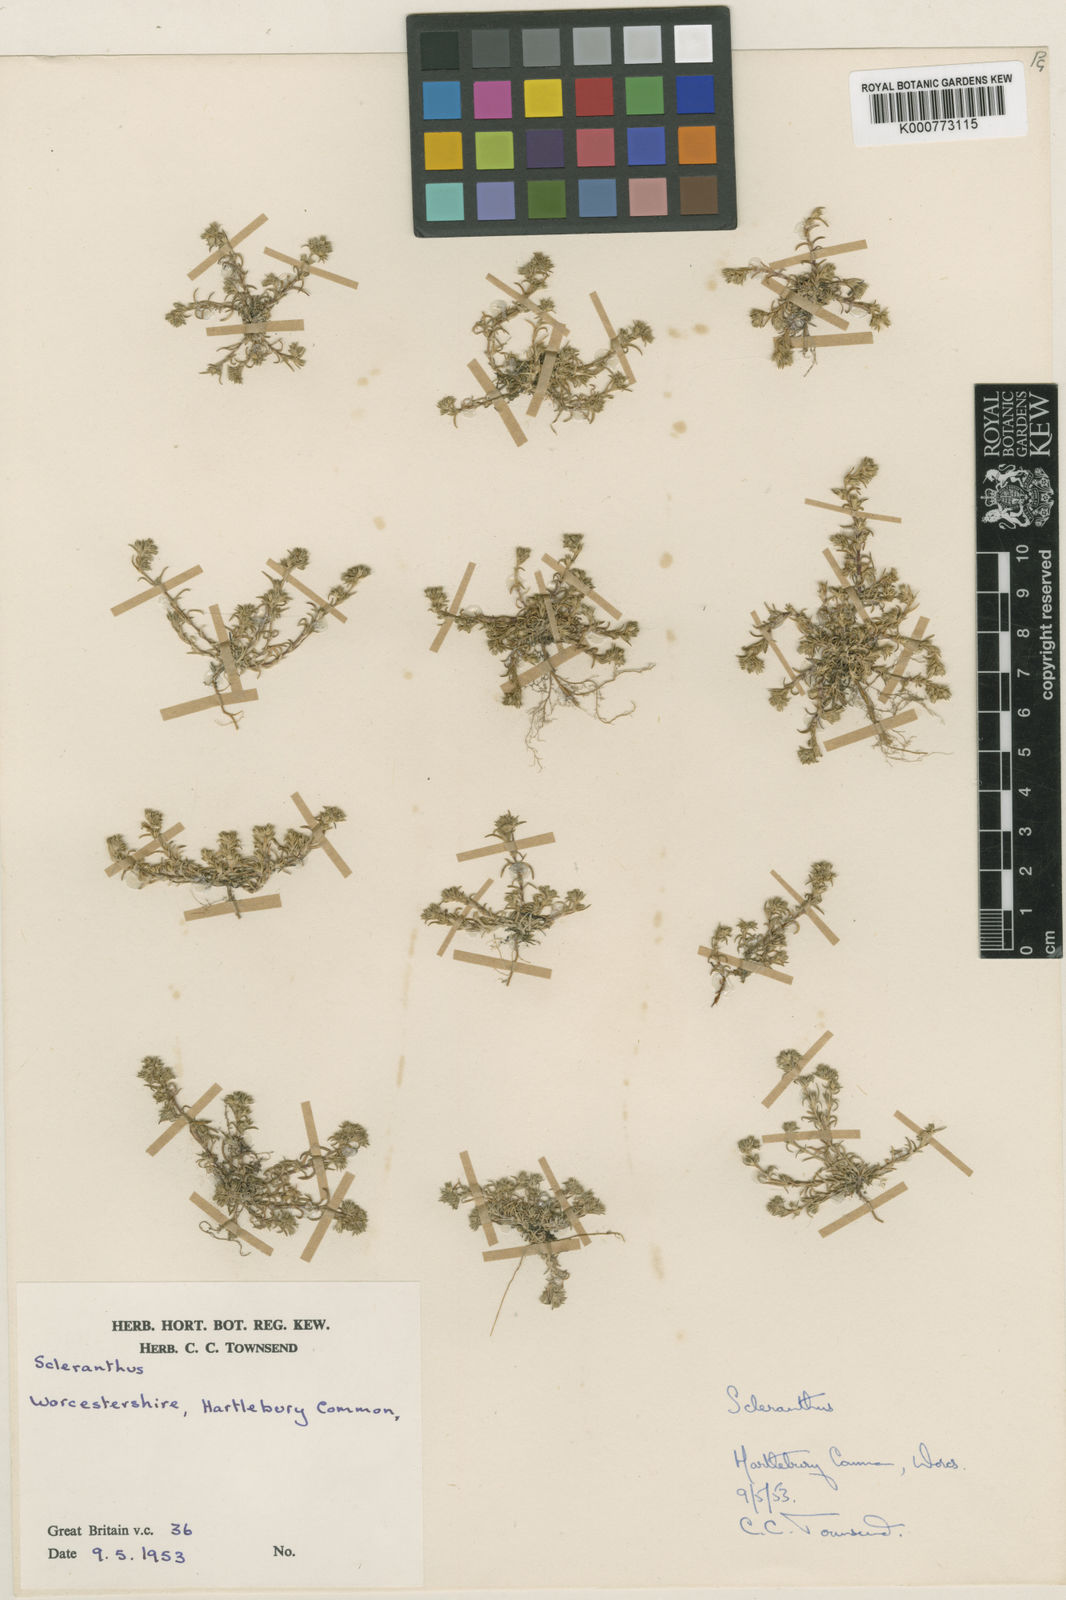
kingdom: Plantae
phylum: Tracheophyta
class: Magnoliopsida
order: Caryophyllales
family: Caryophyllaceae
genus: Scleranthus
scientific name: Scleranthus annuus
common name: Annual knawel
